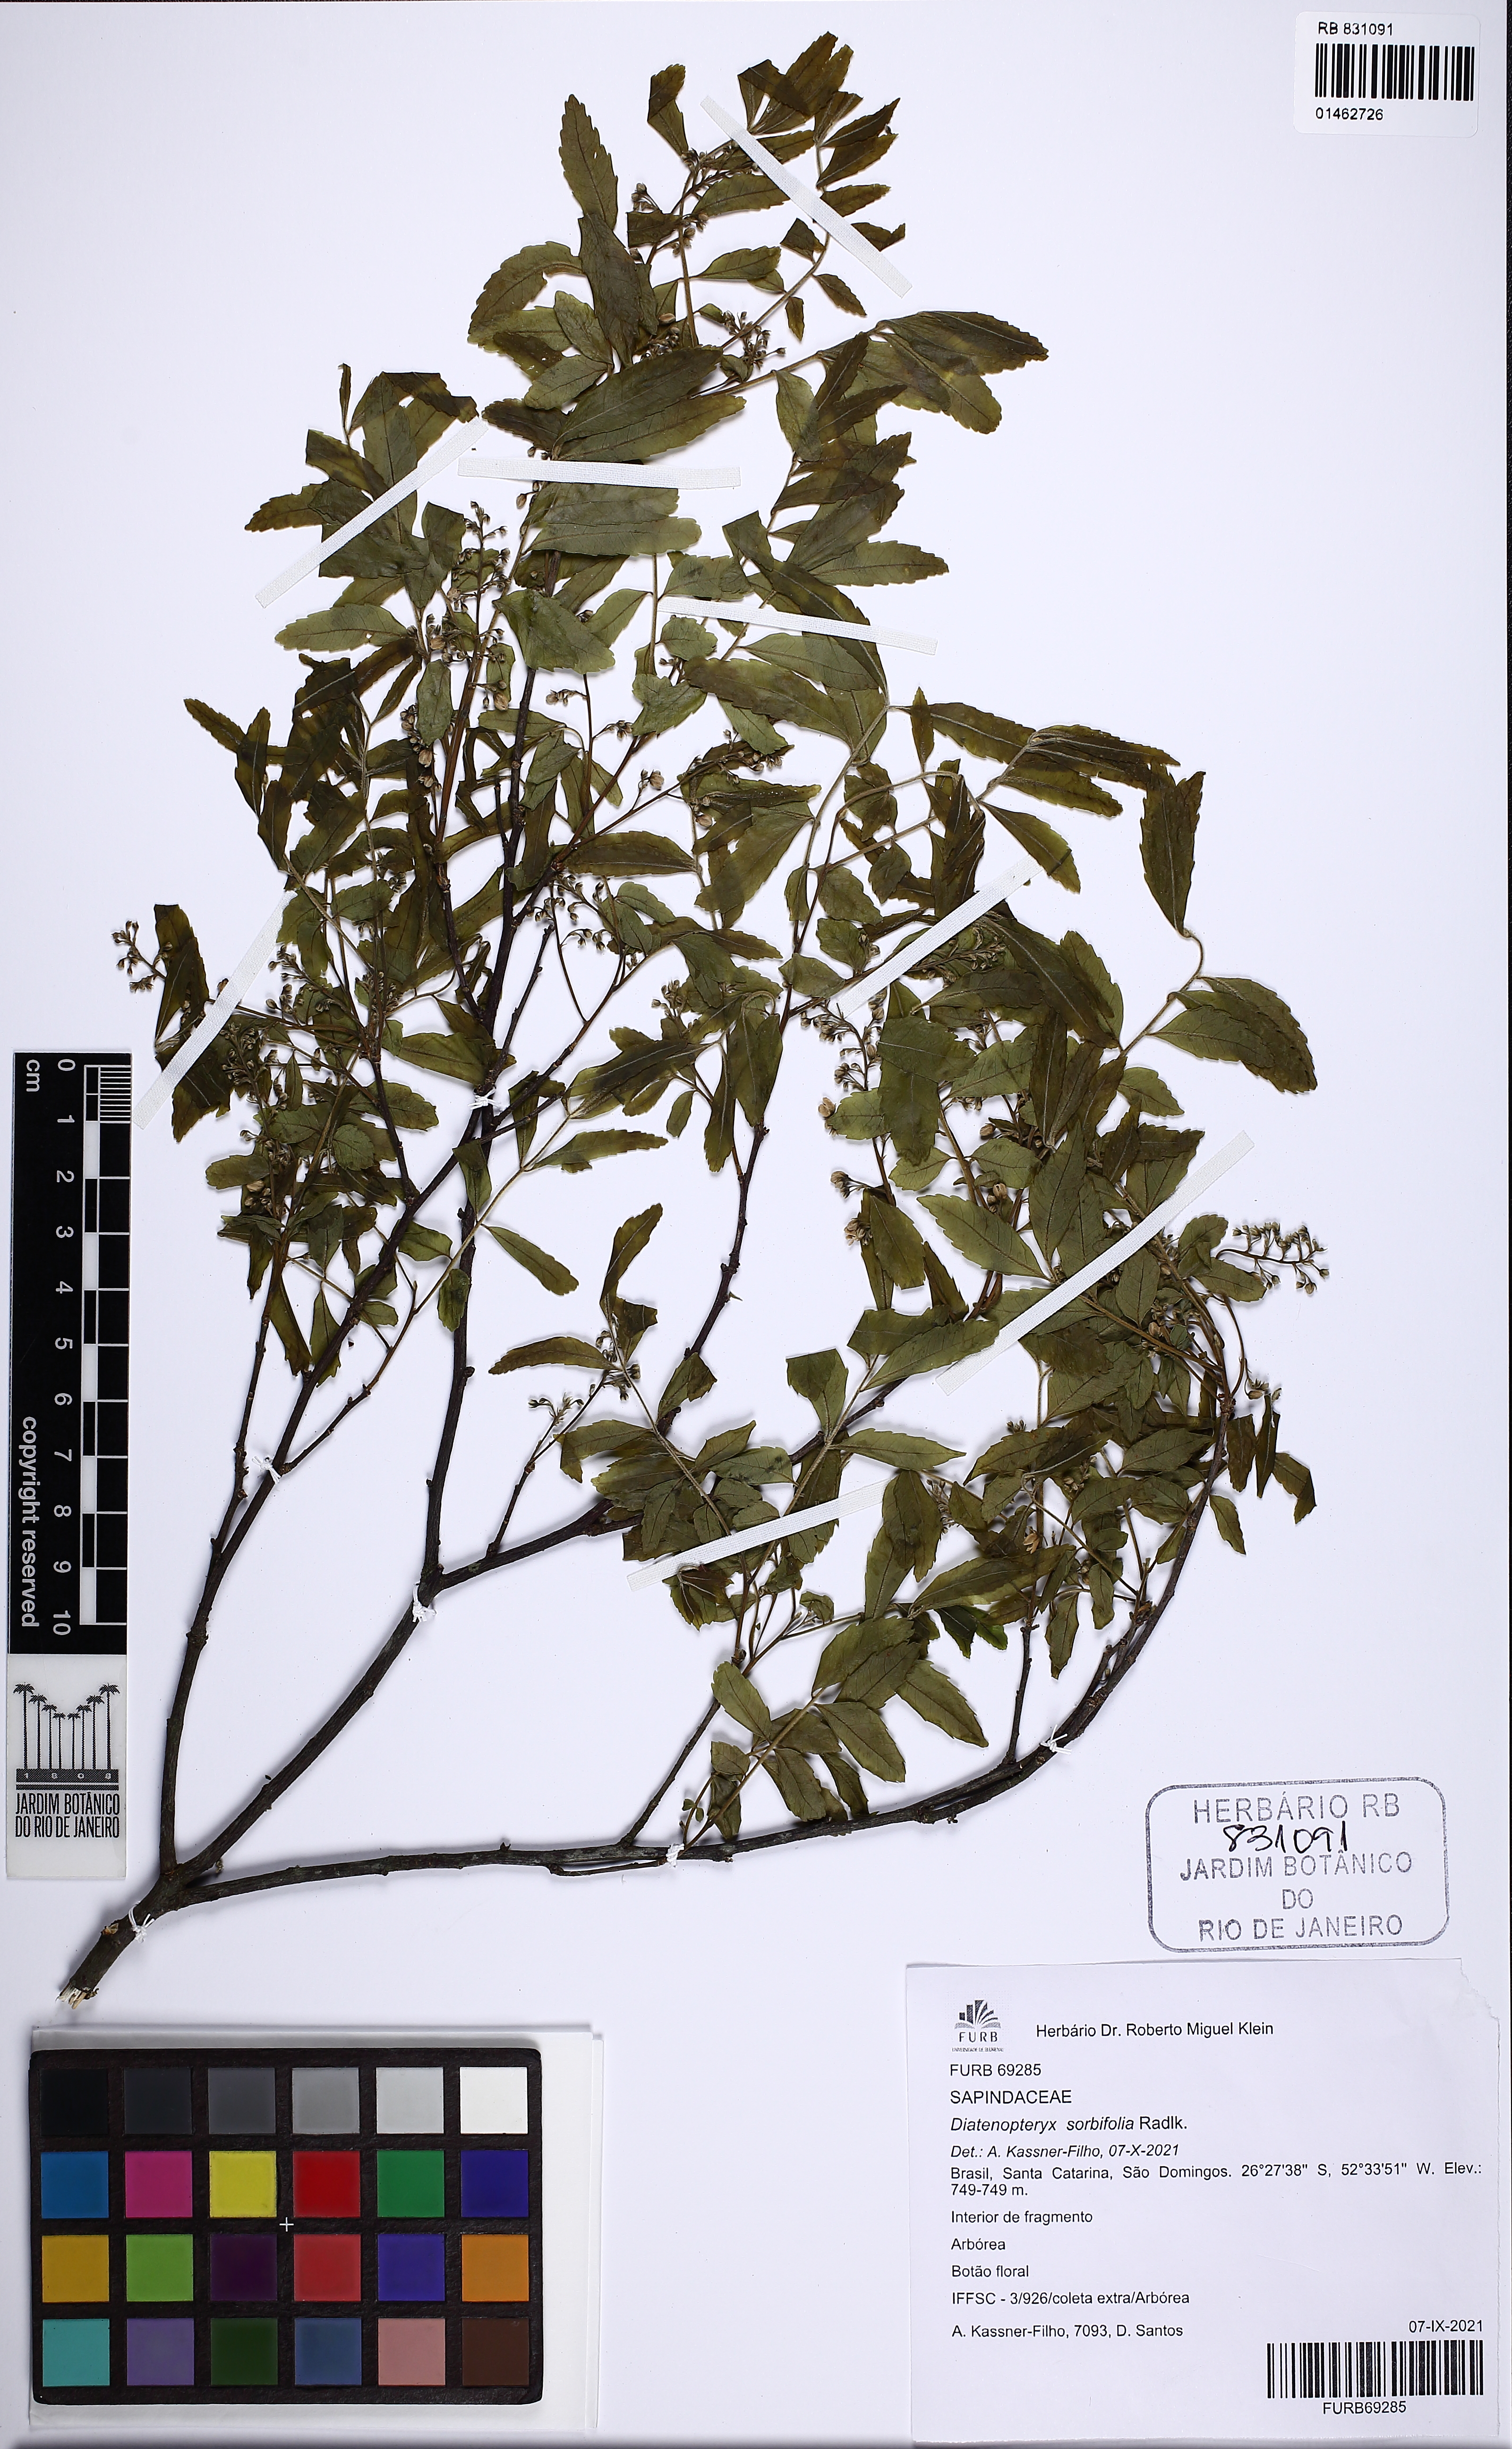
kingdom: Plantae
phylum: Tracheophyta
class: Magnoliopsida
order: Sapindales
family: Sapindaceae
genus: Diatenopteryx
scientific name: Diatenopteryx sorbifolia
